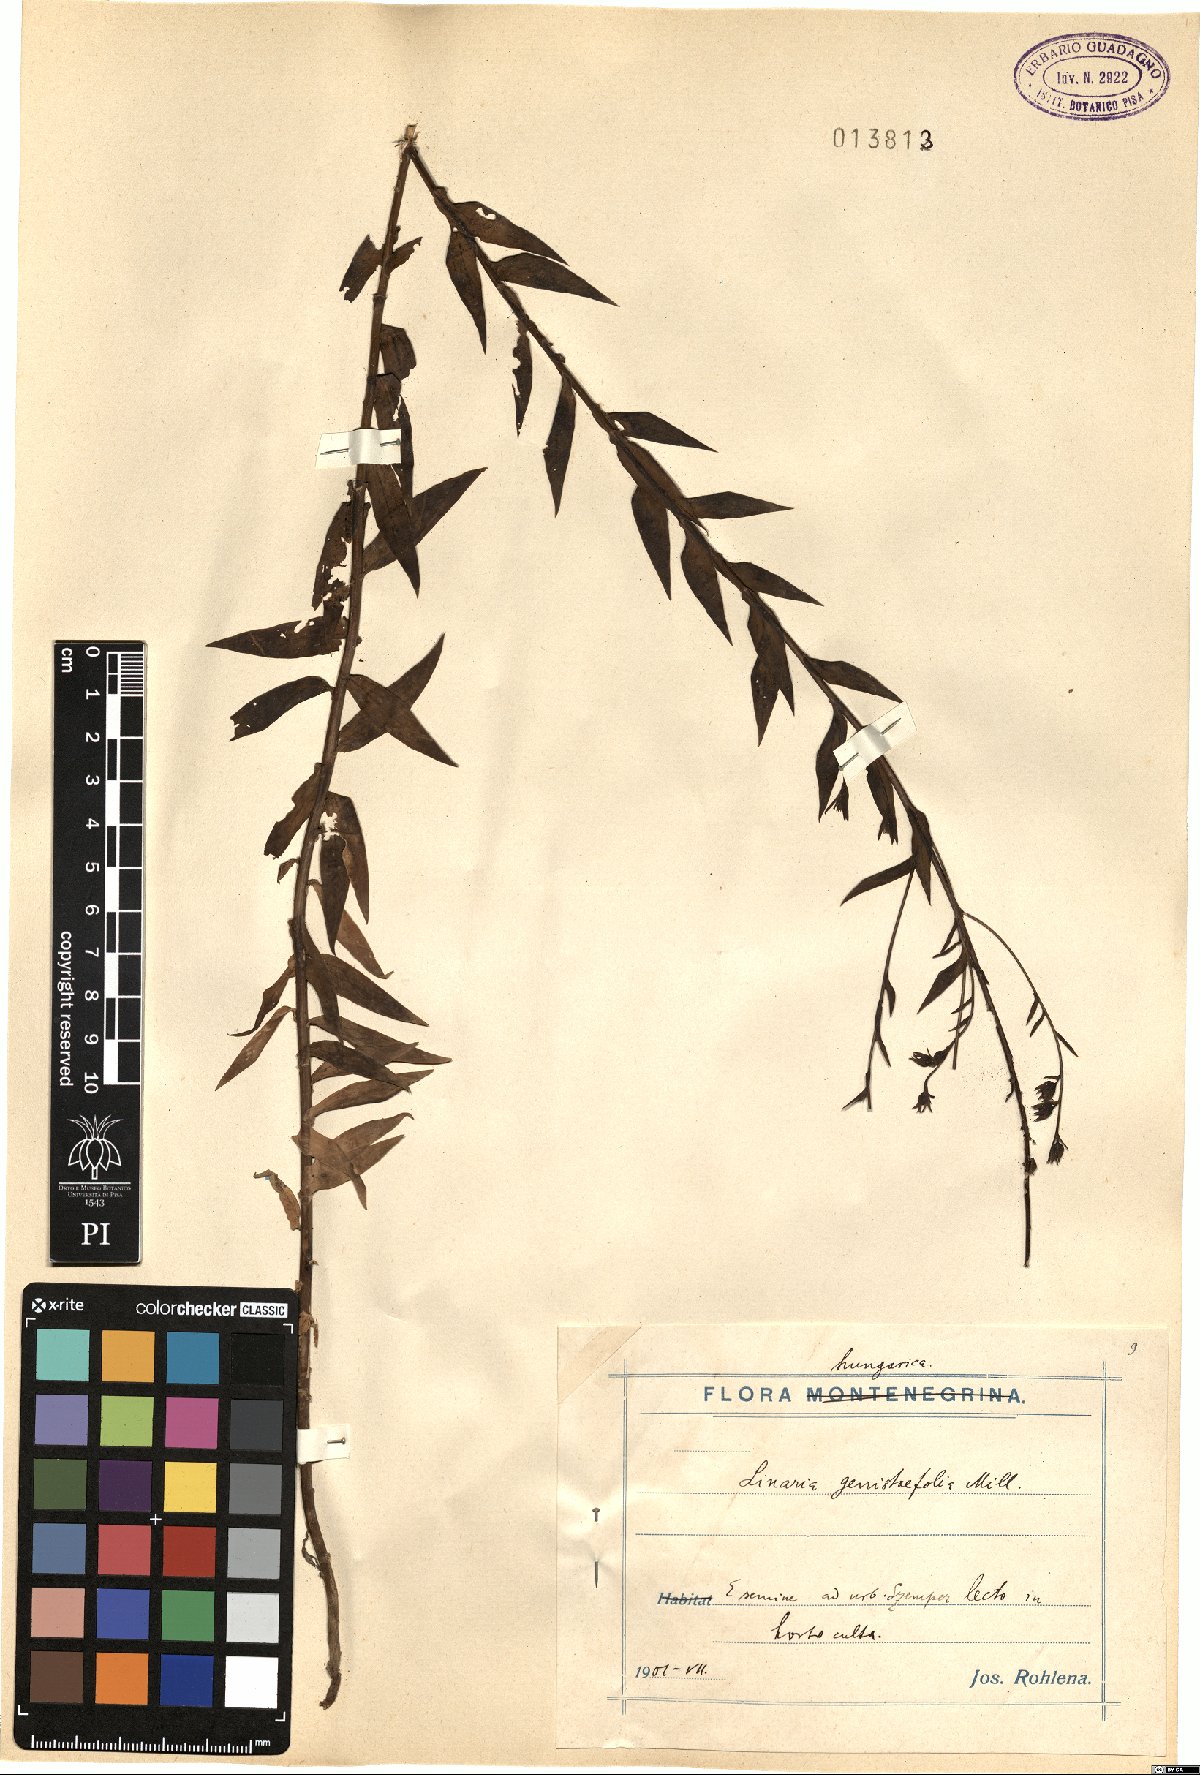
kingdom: Plantae
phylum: Tracheophyta
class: Magnoliopsida
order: Lamiales
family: Plantaginaceae
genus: Linaria
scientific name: Linaria genistifolia
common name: Broomleaf toadflax
